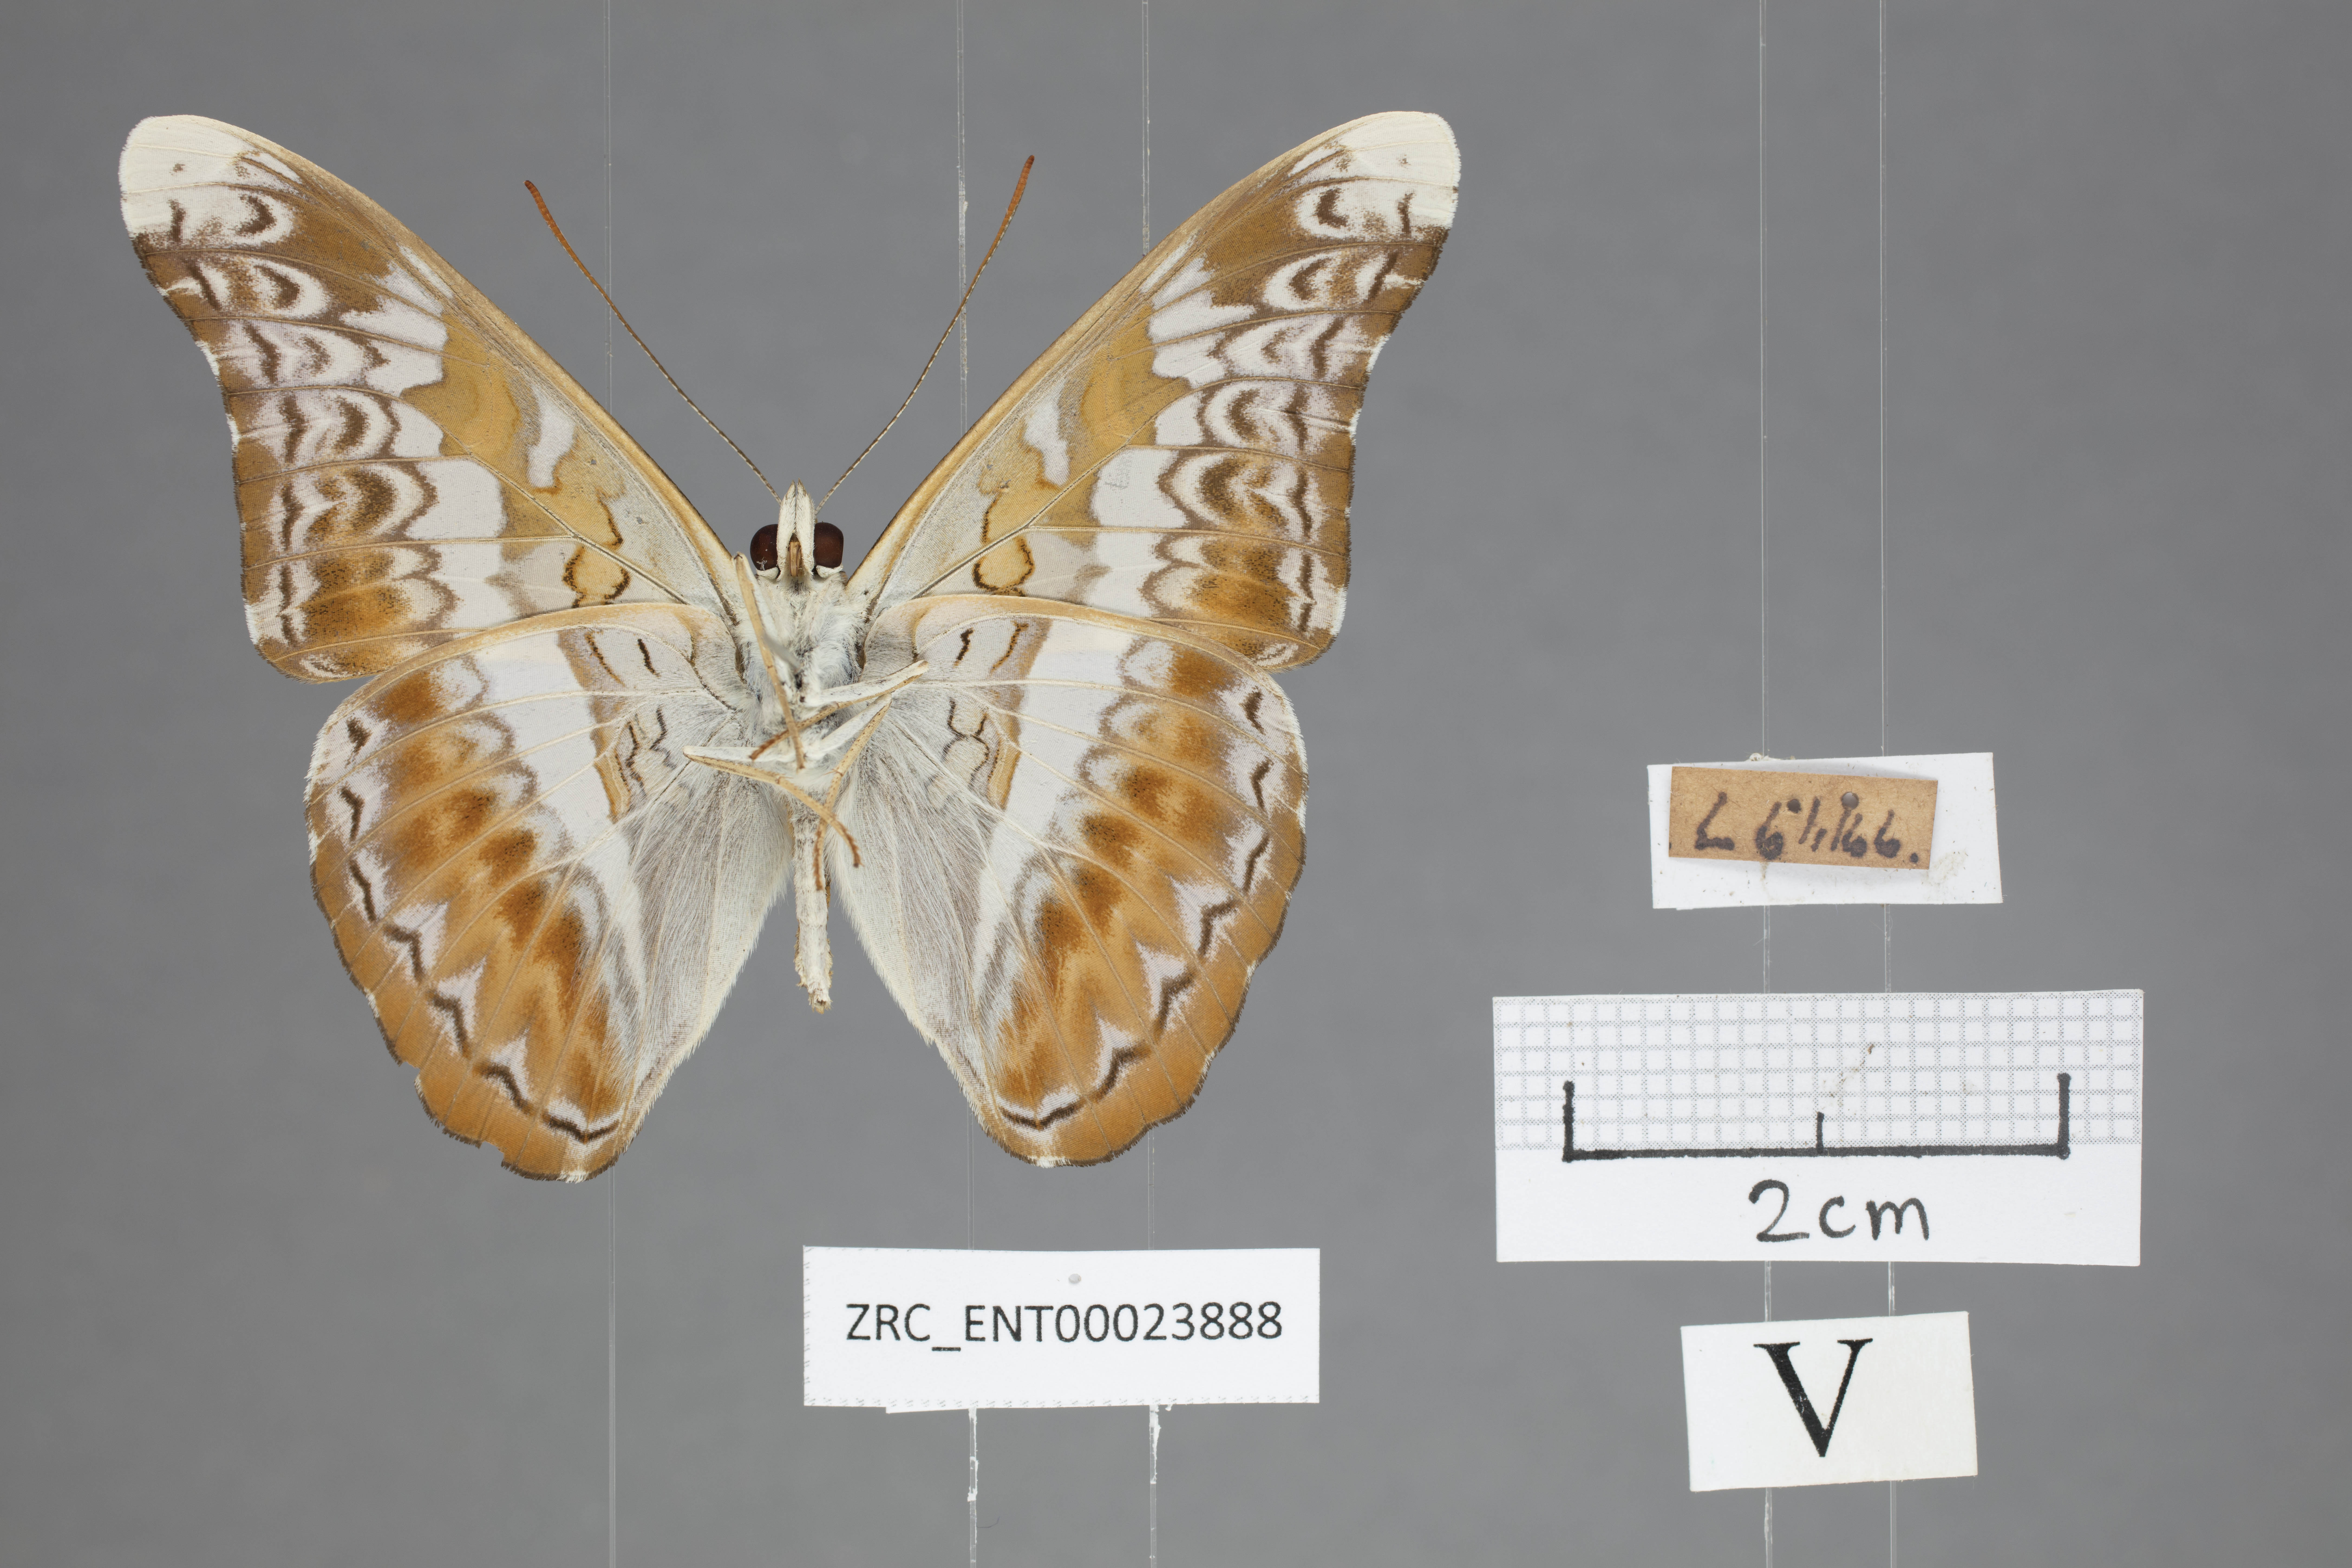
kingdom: Animalia
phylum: Arthropoda
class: Insecta
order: Lepidoptera
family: Nymphalidae
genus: Lebadea
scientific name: Lebadea martha
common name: Knight
